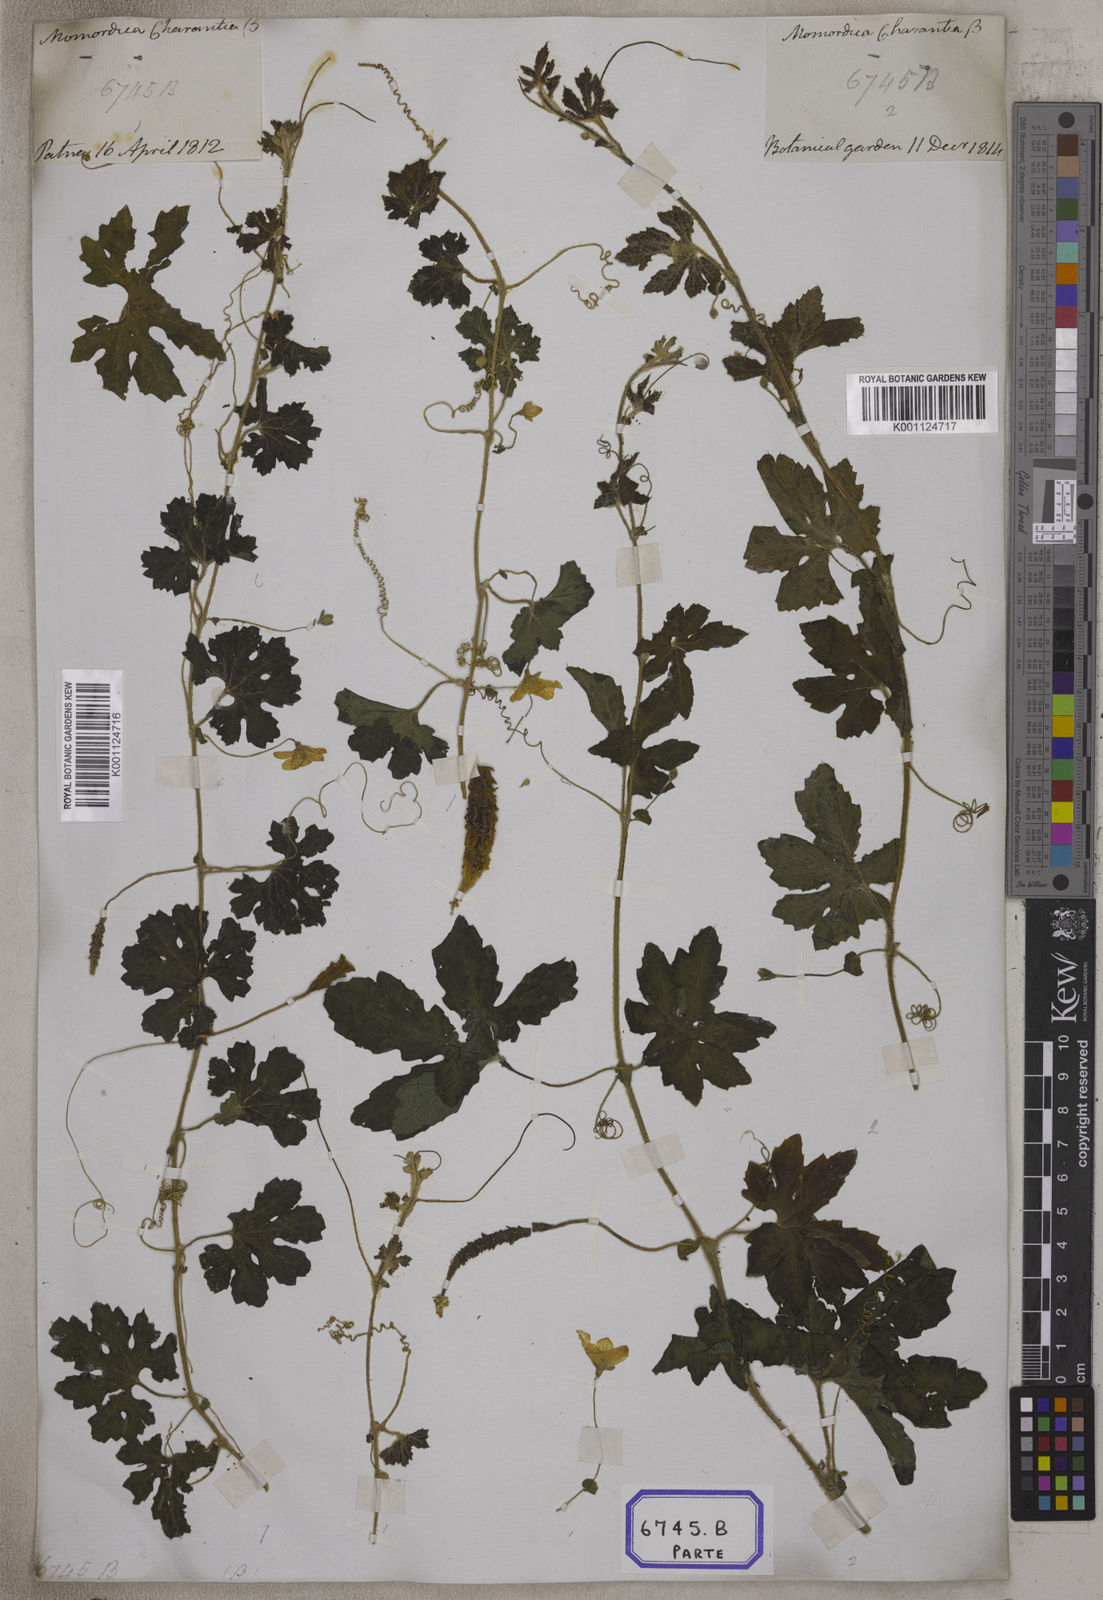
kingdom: Plantae
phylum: Tracheophyta
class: Magnoliopsida
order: Cucurbitales
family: Cucurbitaceae
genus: Momordica
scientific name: Momordica
